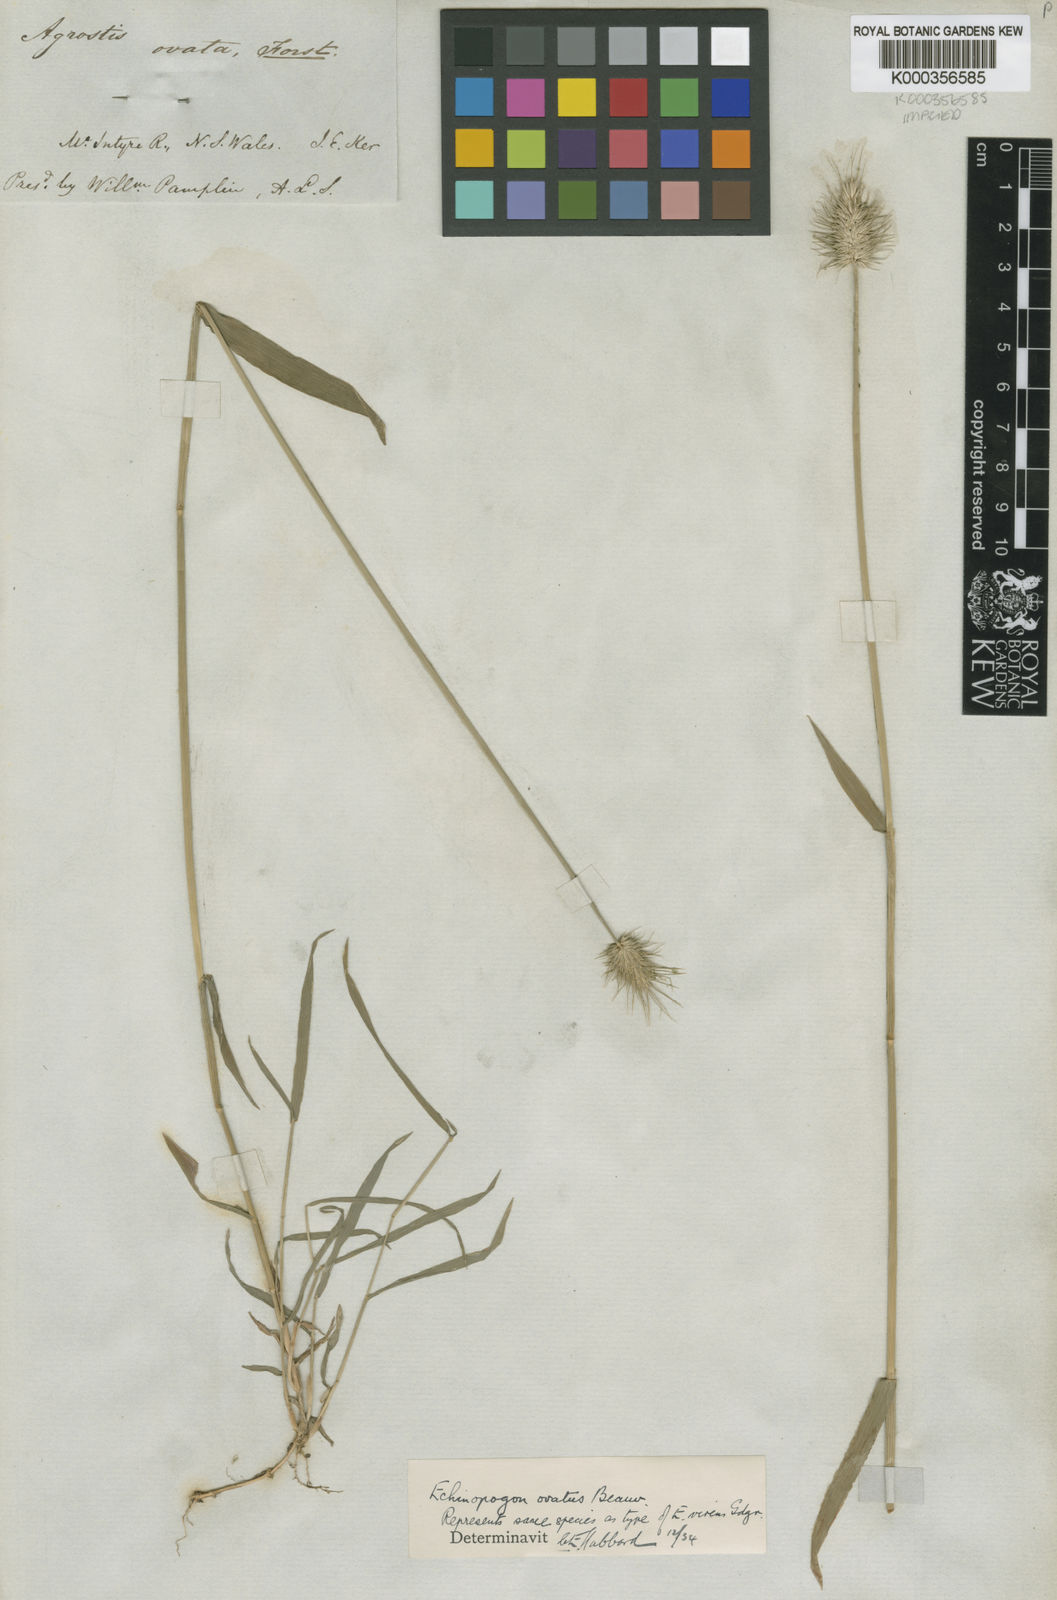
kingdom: Plantae
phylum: Tracheophyta
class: Liliopsida
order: Poales
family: Poaceae
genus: Echinopogon
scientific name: Echinopogon ovatus
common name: Hedgehog-grass
